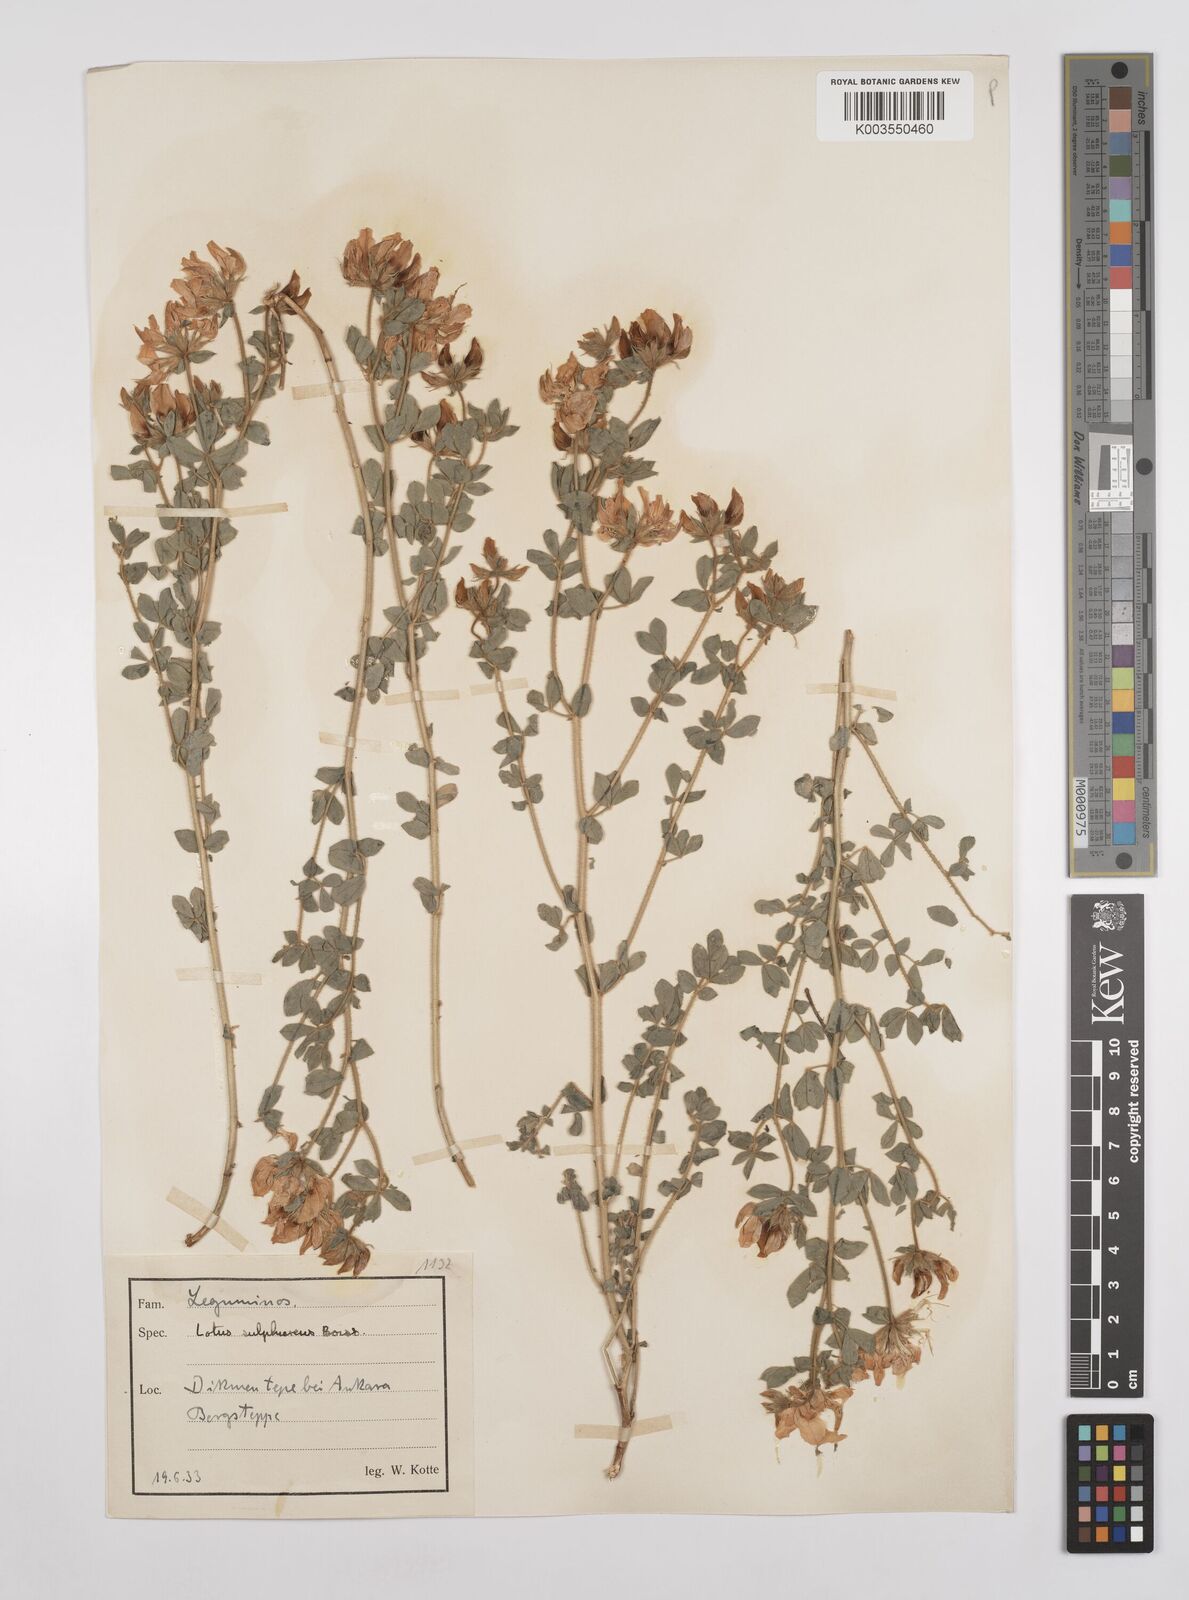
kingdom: Plantae
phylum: Tracheophyta
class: Magnoliopsida
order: Fabales
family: Fabaceae
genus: Lotus
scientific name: Lotus aegaeus
